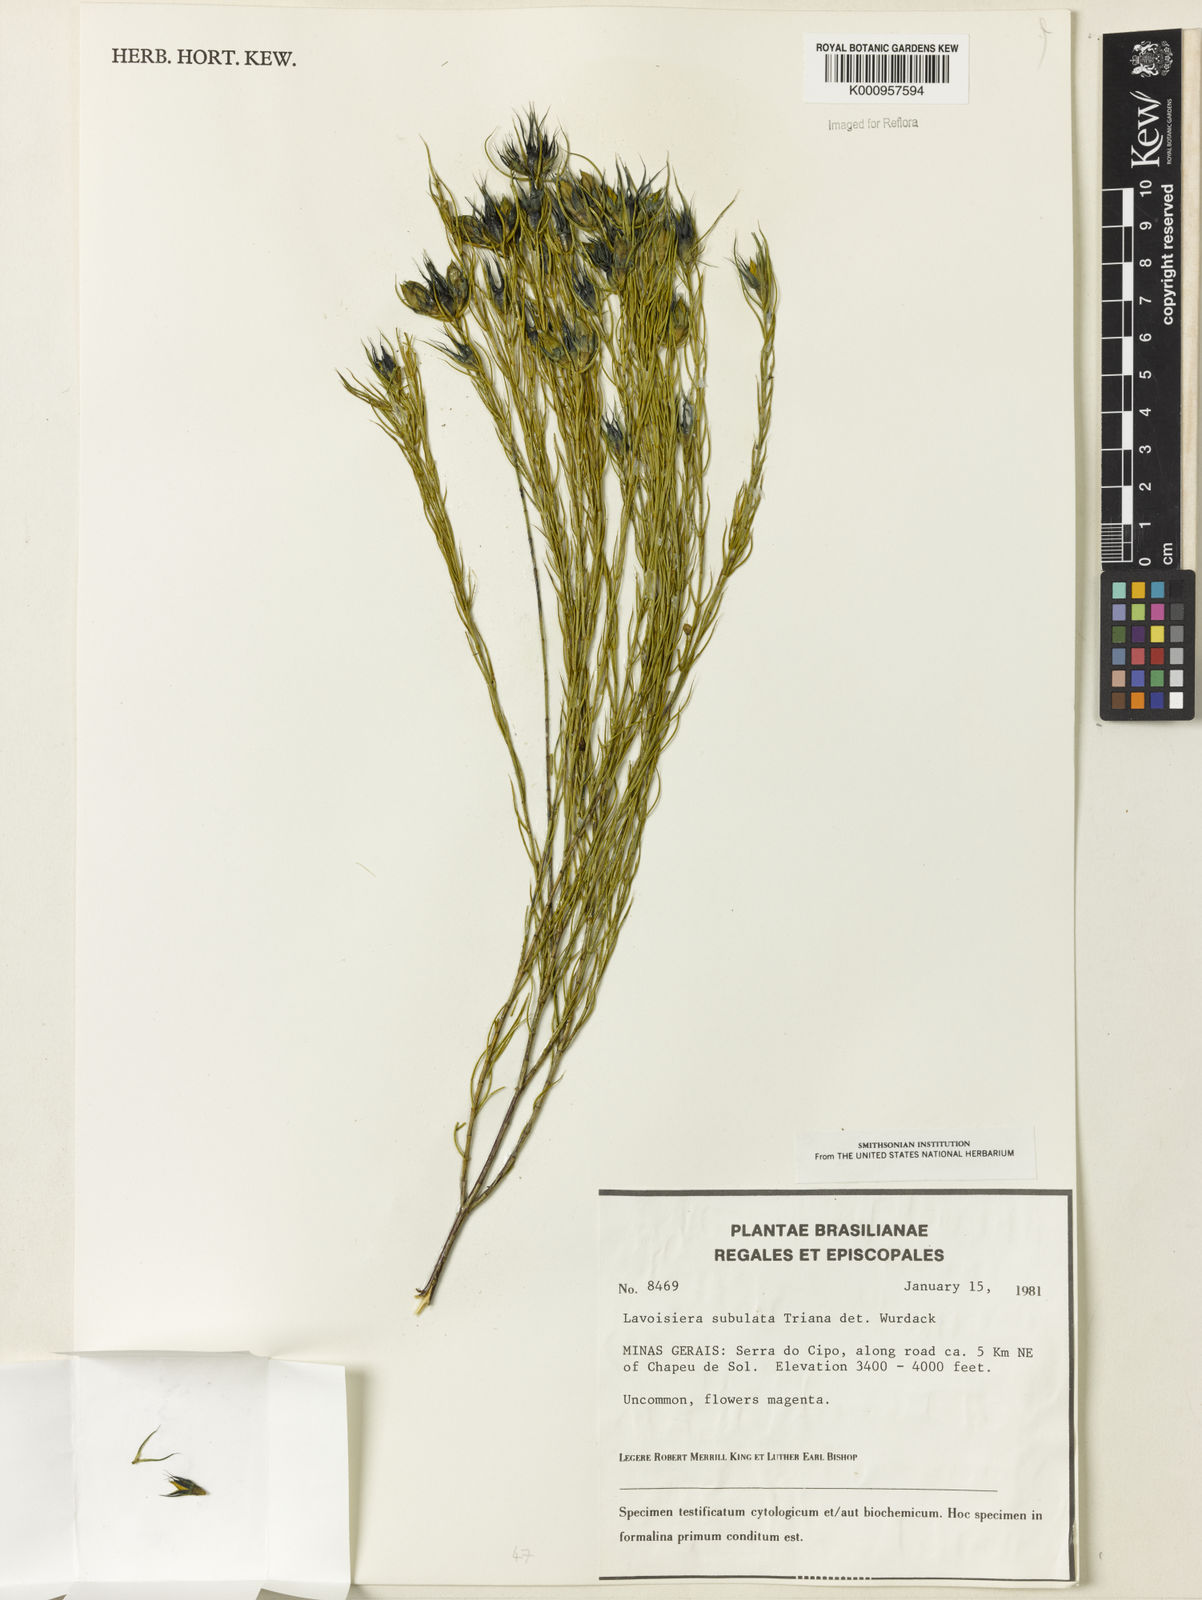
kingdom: Plantae
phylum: Tracheophyta
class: Magnoliopsida
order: Myrtales
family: Melastomataceae
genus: Microlicia
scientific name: Microlicia subulata
